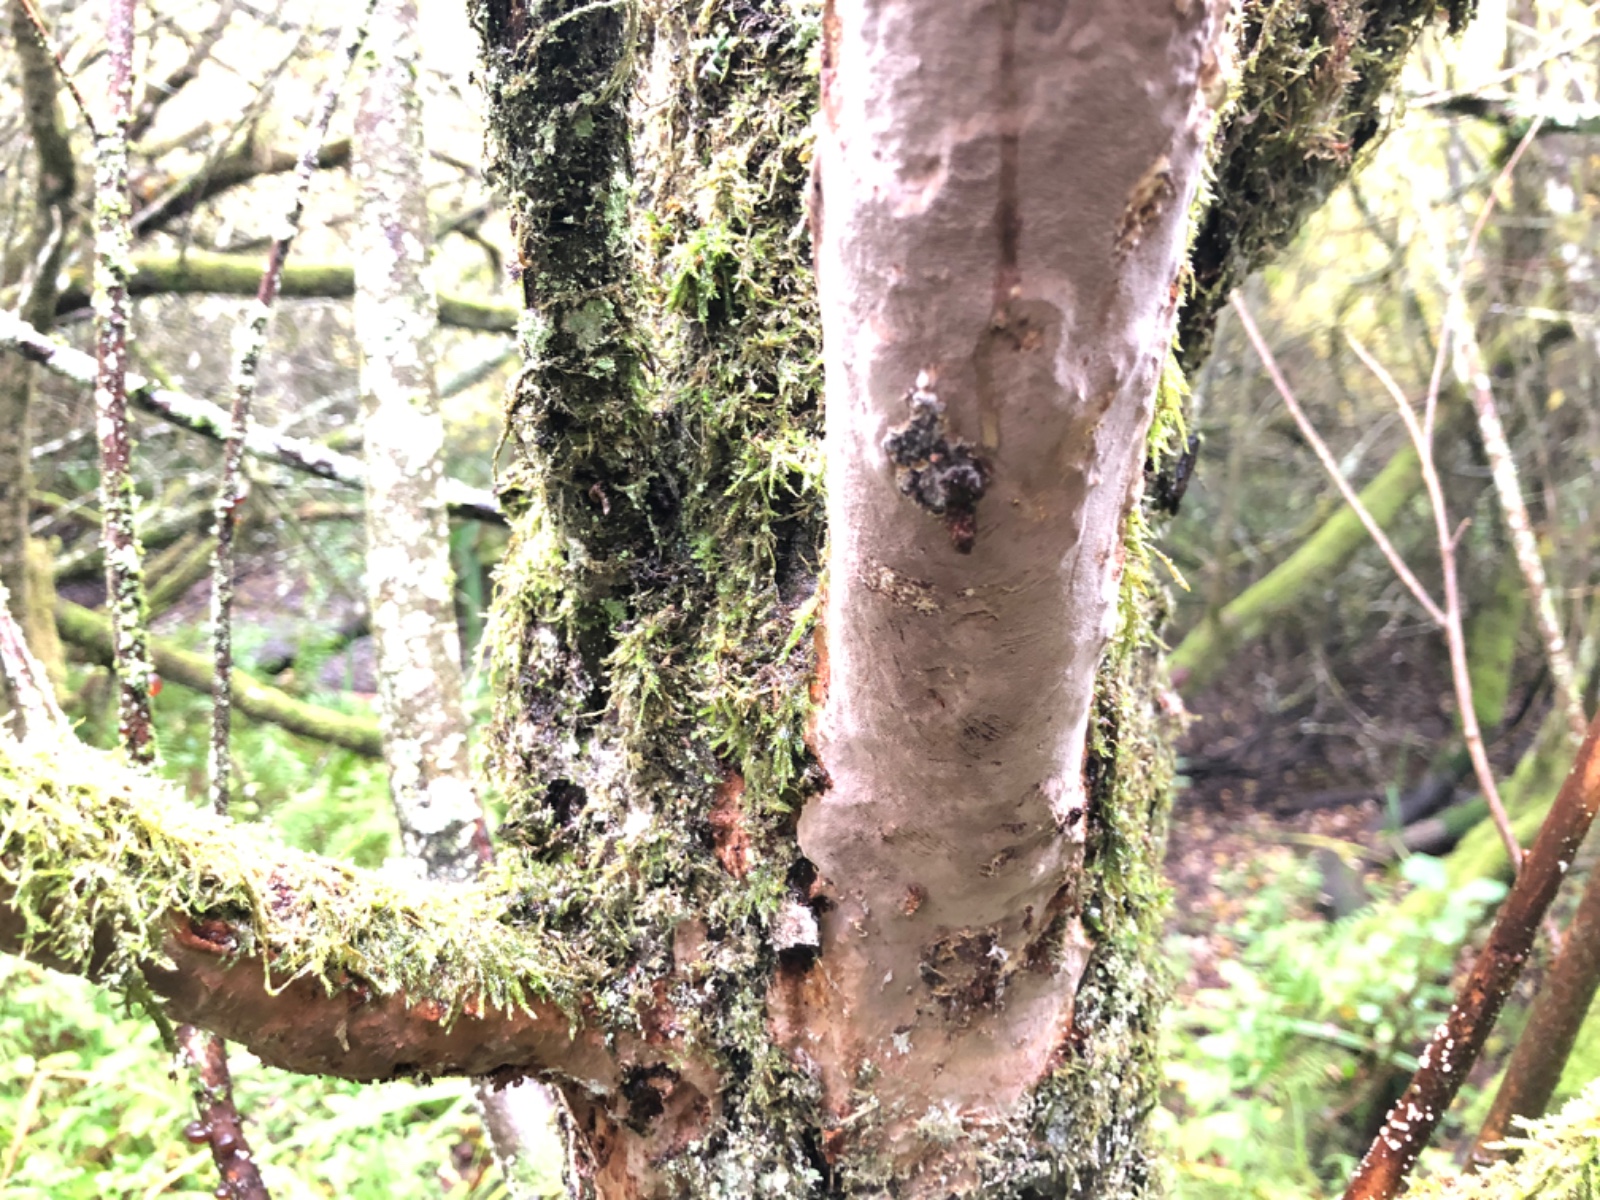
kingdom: Fungi
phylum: Basidiomycota
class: Agaricomycetes
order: Hymenochaetales
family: Hymenochaetaceae
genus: Fomitiporia
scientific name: Fomitiporia punctata
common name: pude-ildporesvamp
